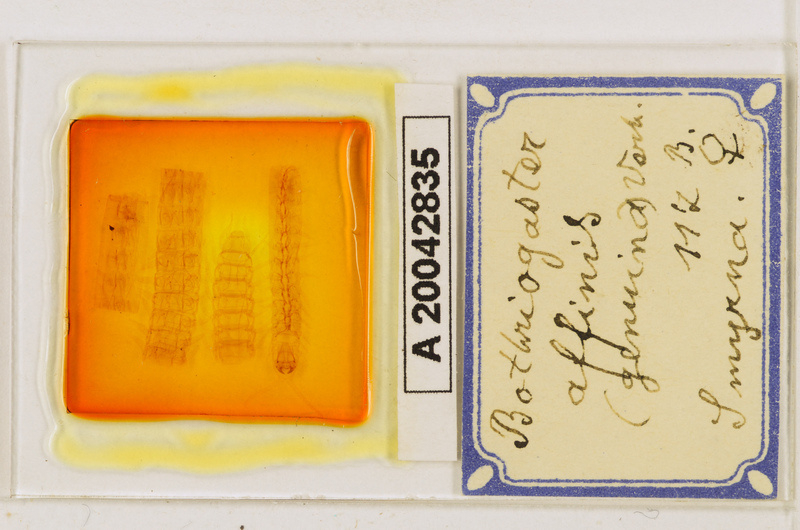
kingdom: Animalia
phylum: Arthropoda
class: Chilopoda
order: Geophilomorpha
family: Himantariidae
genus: Bothriogaster
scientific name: Bothriogaster signata
